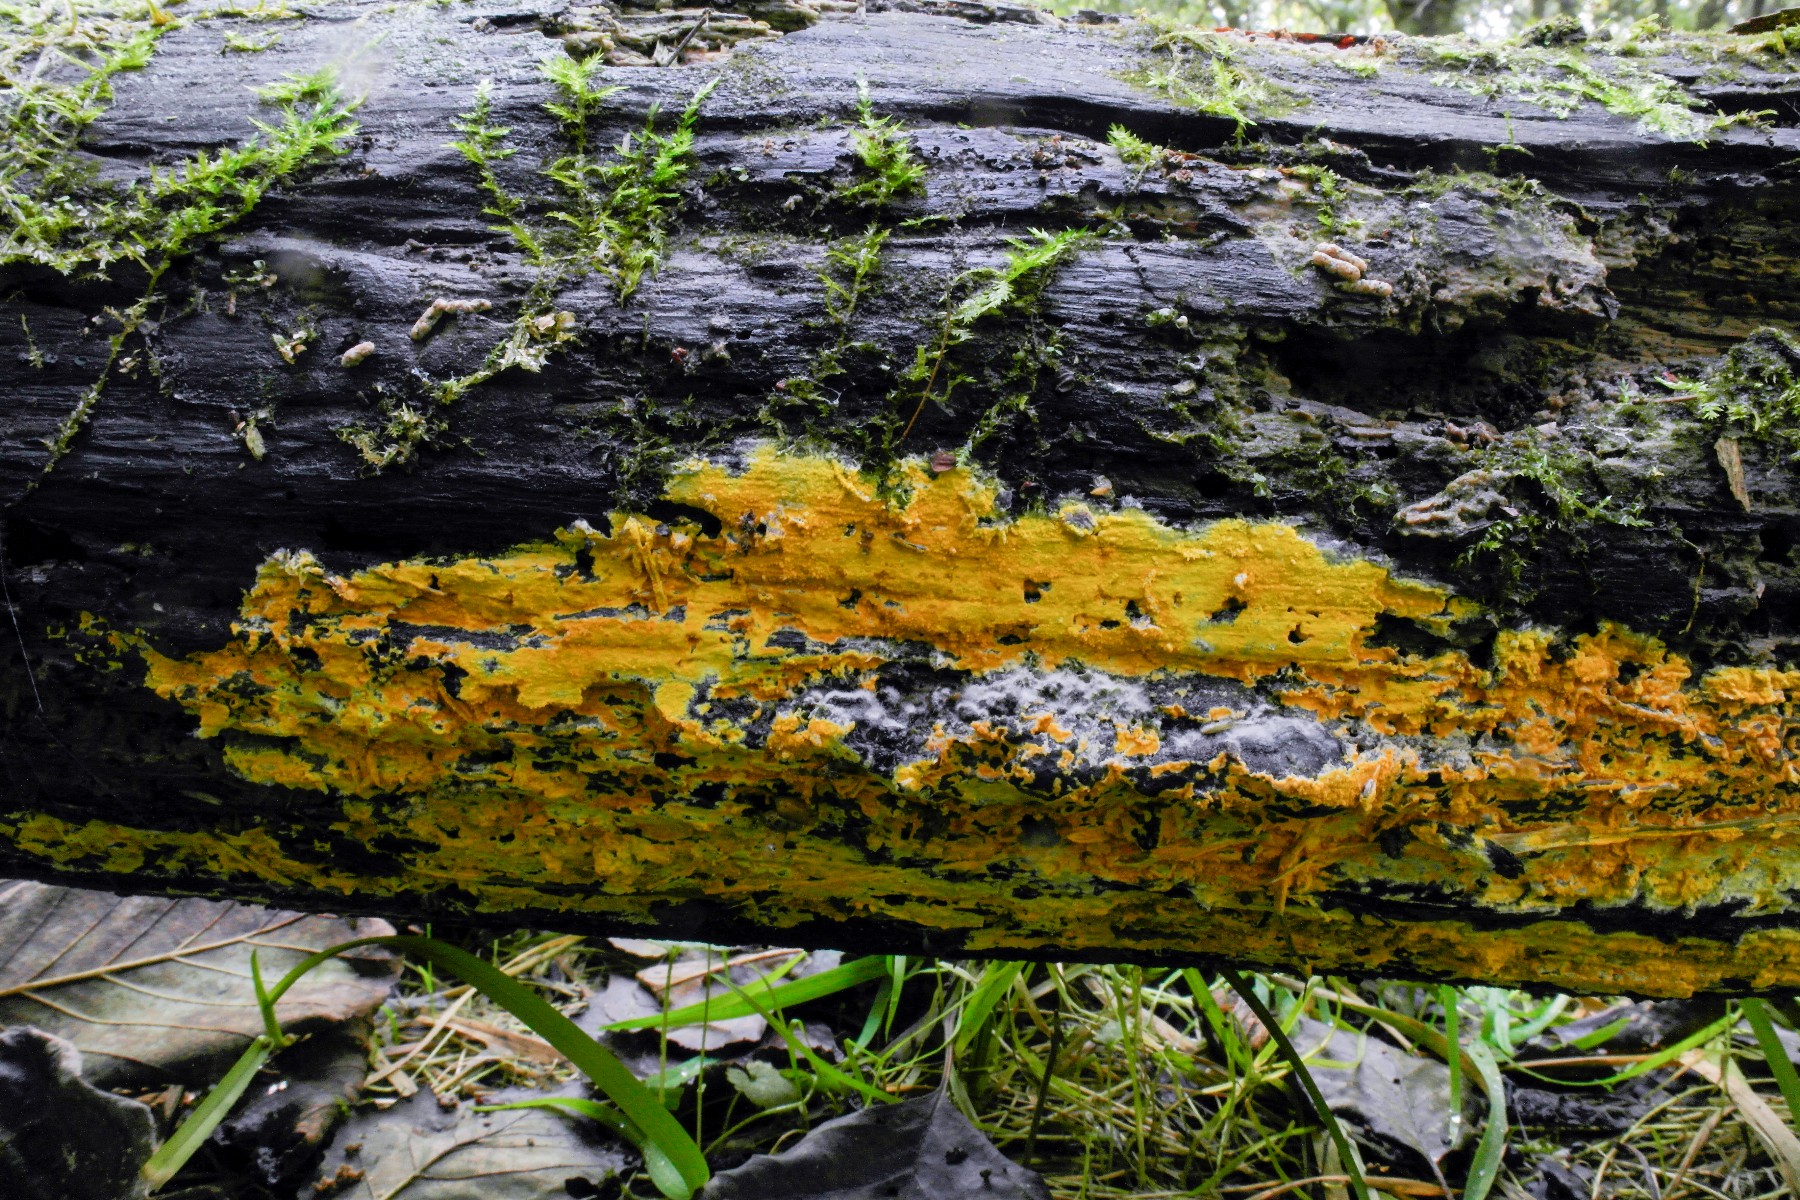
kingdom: Fungi
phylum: Basidiomycota
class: Agaricomycetes
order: Polyporales
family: Meruliaceae
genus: Phlebiodontia
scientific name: Phlebiodontia subochracea
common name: svovl-åresvamp
